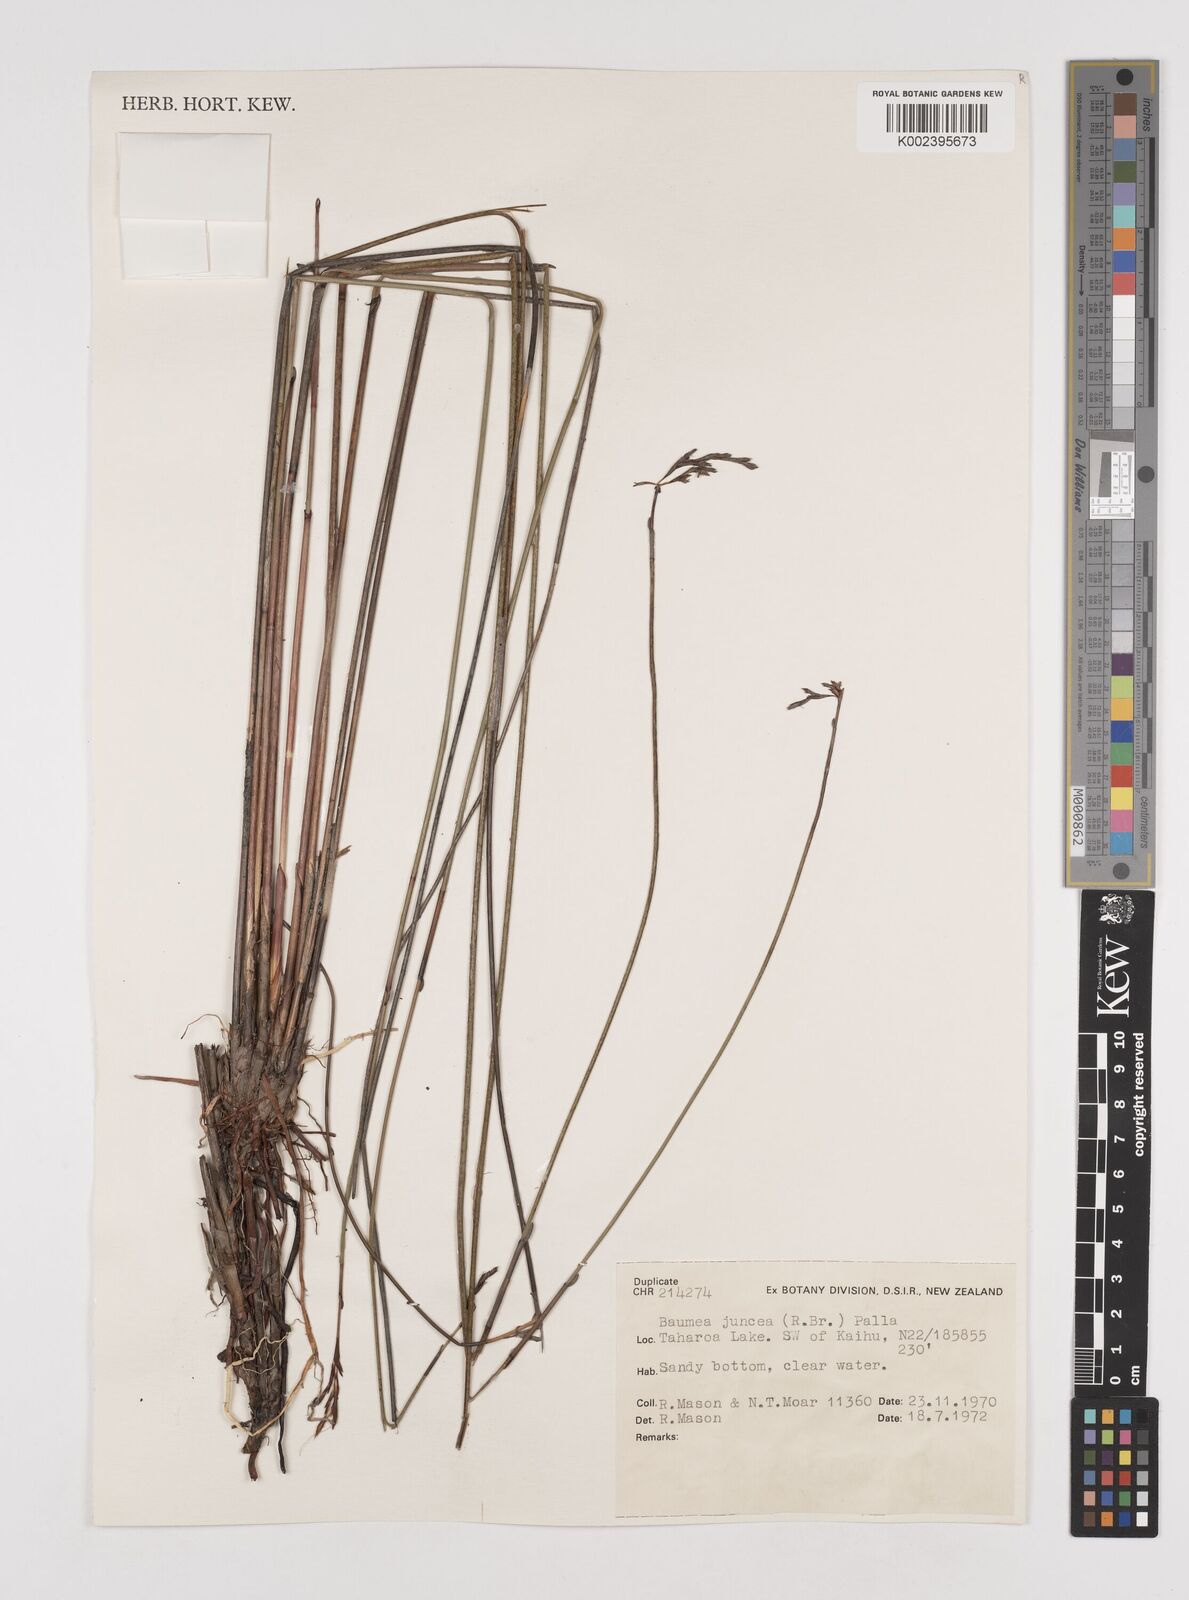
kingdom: Plantae
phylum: Tracheophyta
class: Liliopsida
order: Poales
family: Cyperaceae
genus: Machaerina
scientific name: Machaerina juncea
